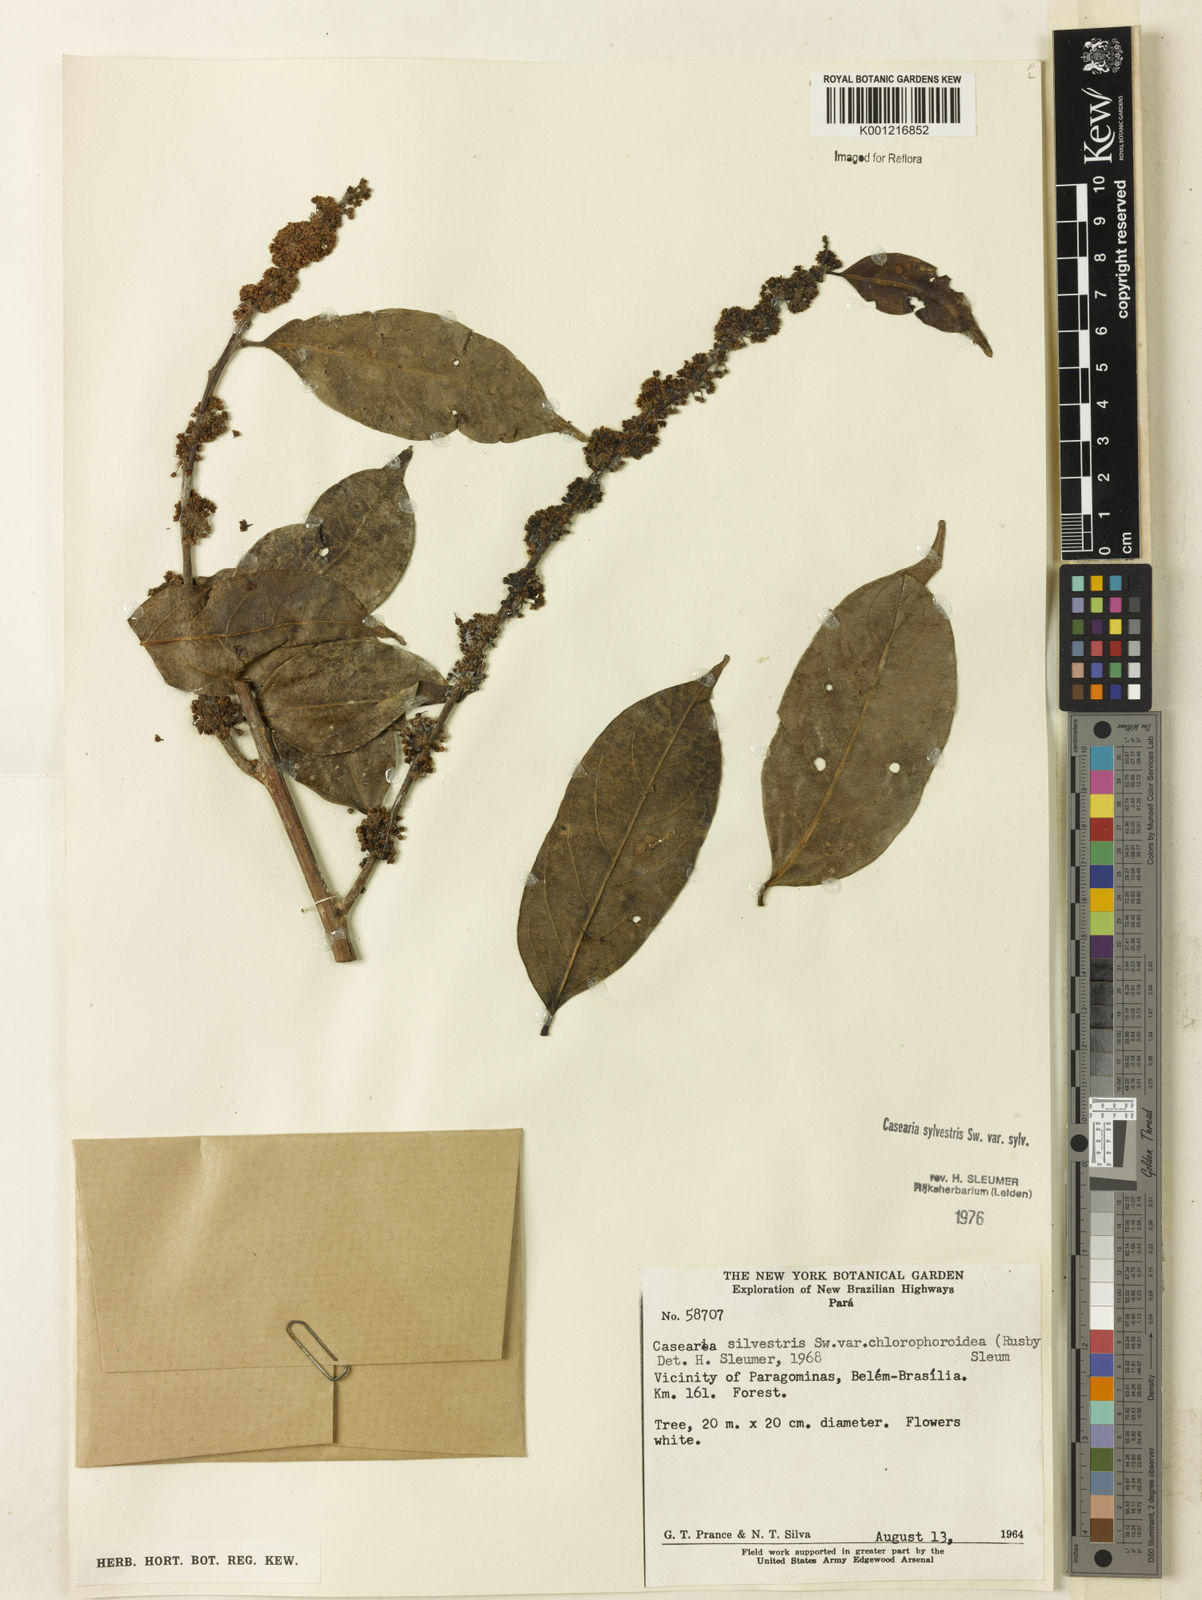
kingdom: Plantae
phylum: Tracheophyta
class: Magnoliopsida
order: Malpighiales
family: Salicaceae
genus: Casearia
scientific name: Casearia sylvestris
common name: Wild sage
